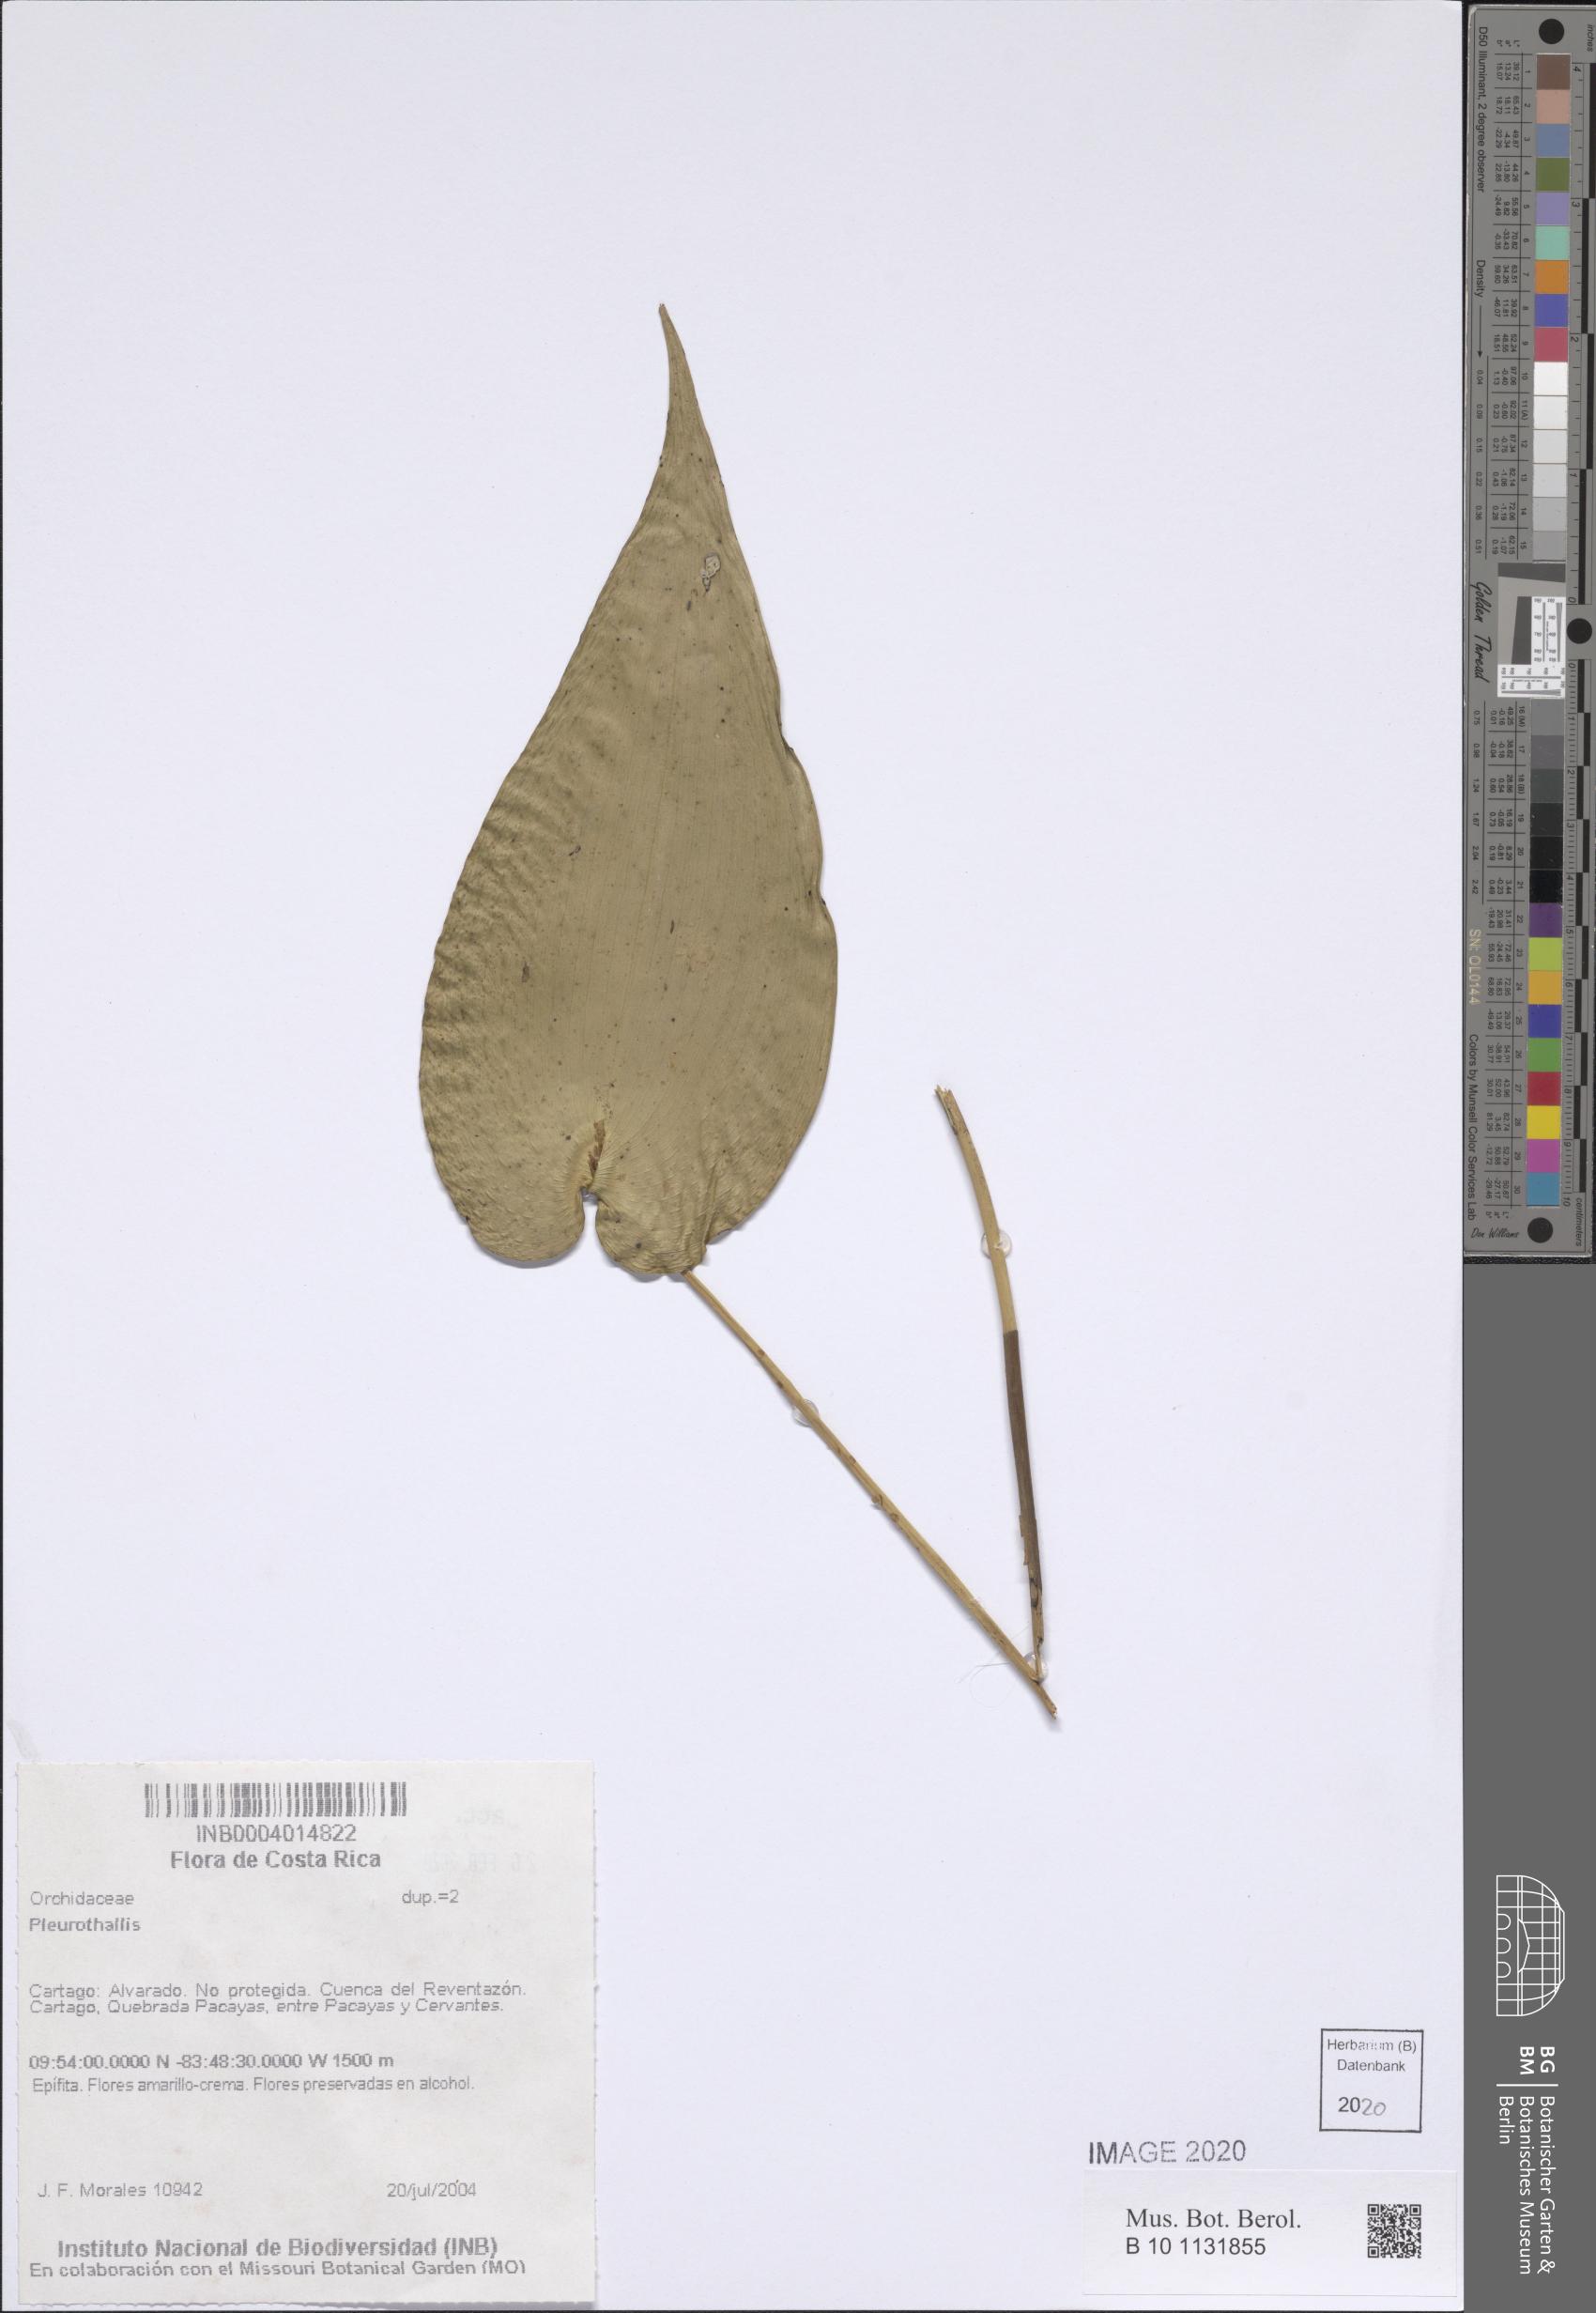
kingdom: Plantae
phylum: Tracheophyta
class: Liliopsida
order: Asparagales
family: Orchidaceae
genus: Pleurothallis
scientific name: Pleurothallis
